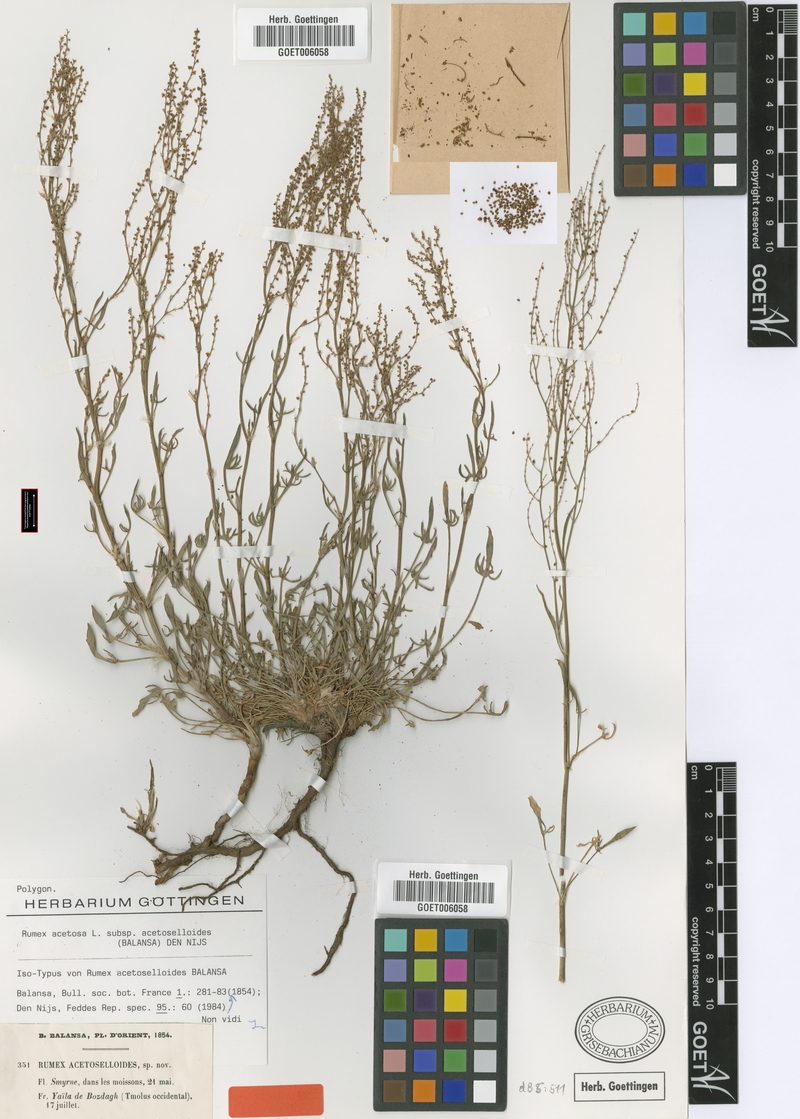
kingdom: Plantae
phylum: Tracheophyta
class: Magnoliopsida
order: Caryophyllales
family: Polygonaceae
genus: Rumex
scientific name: Rumex acetosella
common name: Common sheep sorrel
